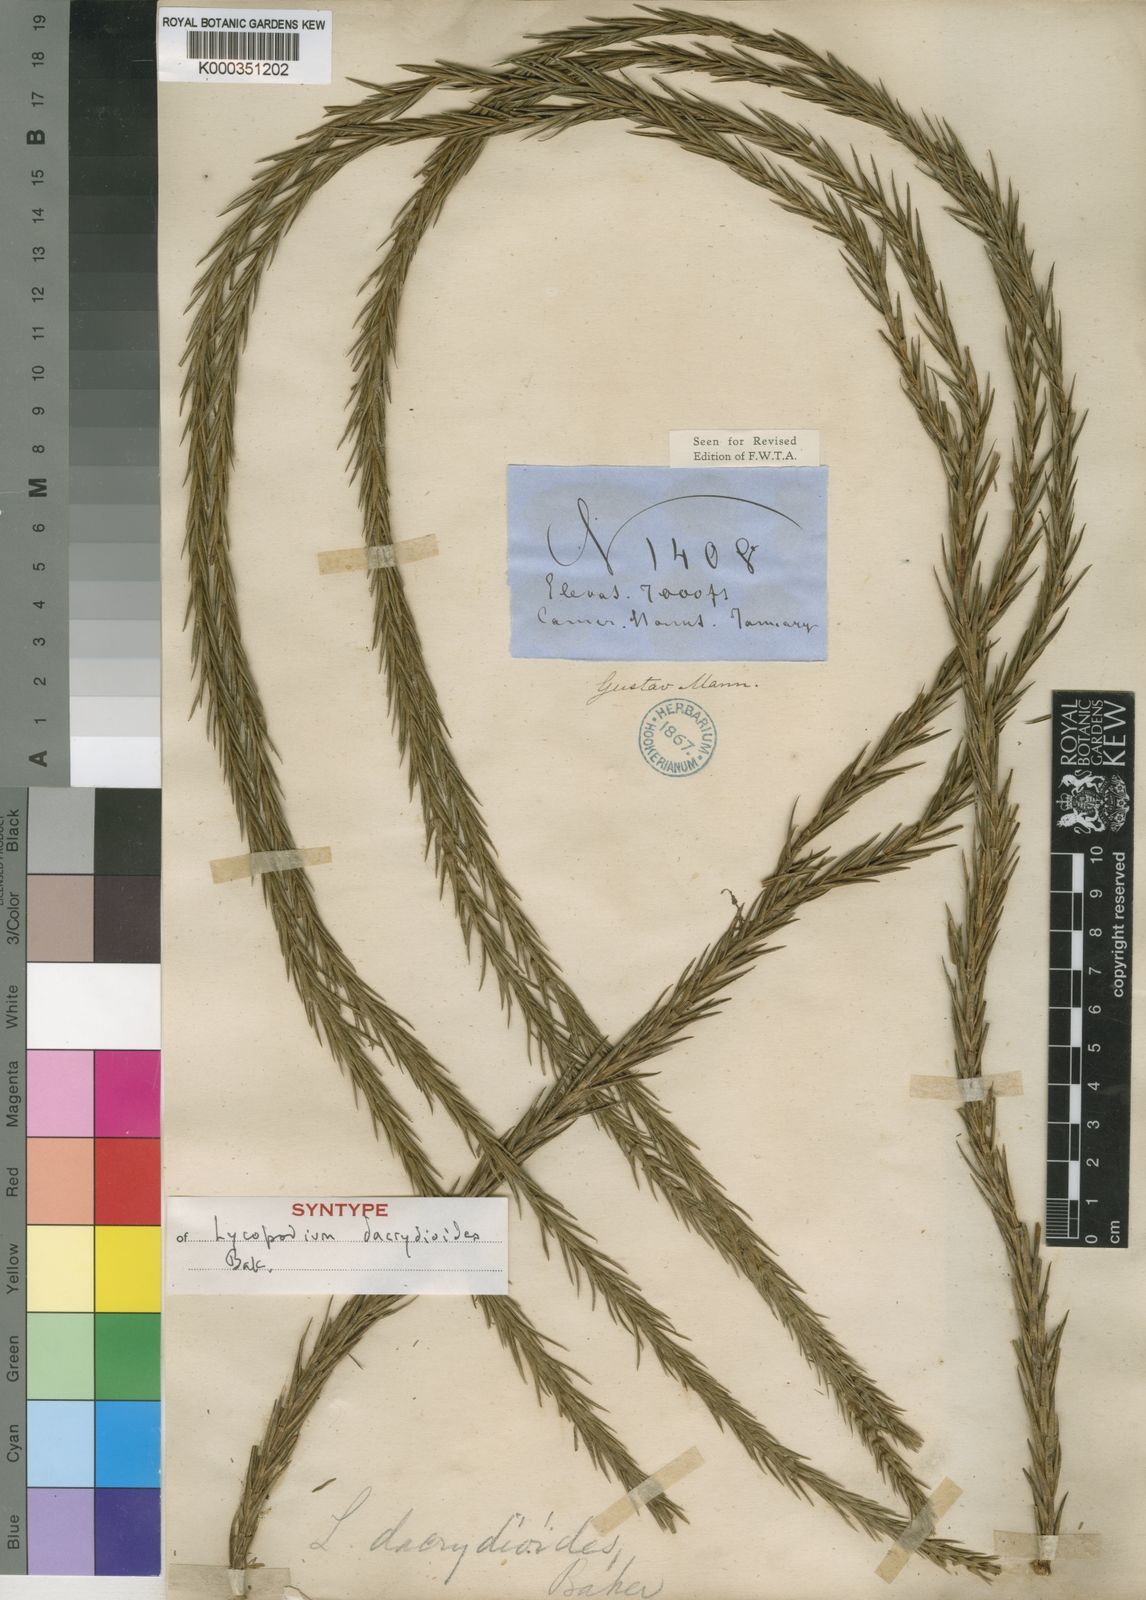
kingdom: Plantae
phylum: Tracheophyta
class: Lycopodiopsida
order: Lycopodiales
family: Lycopodiaceae
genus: Phlegmariurus
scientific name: Phlegmariurus dacrydioides
